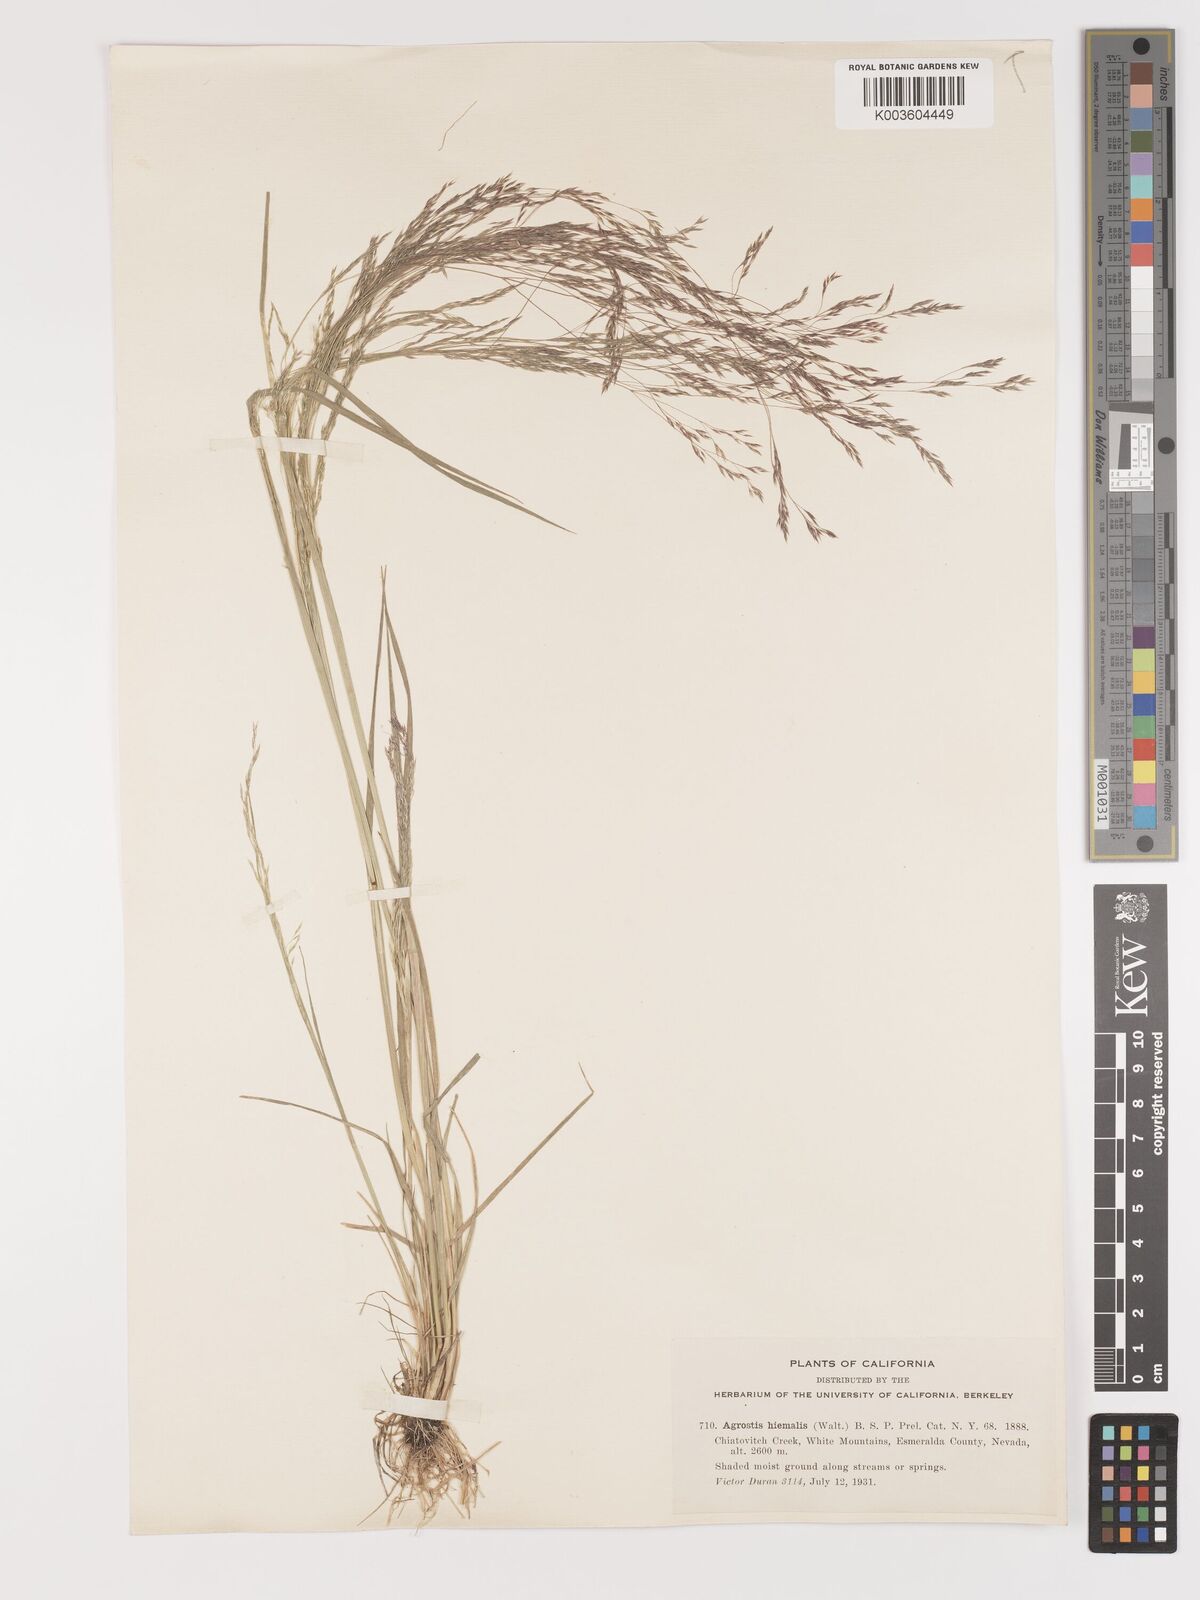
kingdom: Plantae
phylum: Tracheophyta
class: Liliopsida
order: Poales
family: Poaceae
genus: Agrostis
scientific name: Agrostis hyemalis
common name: Small bent
